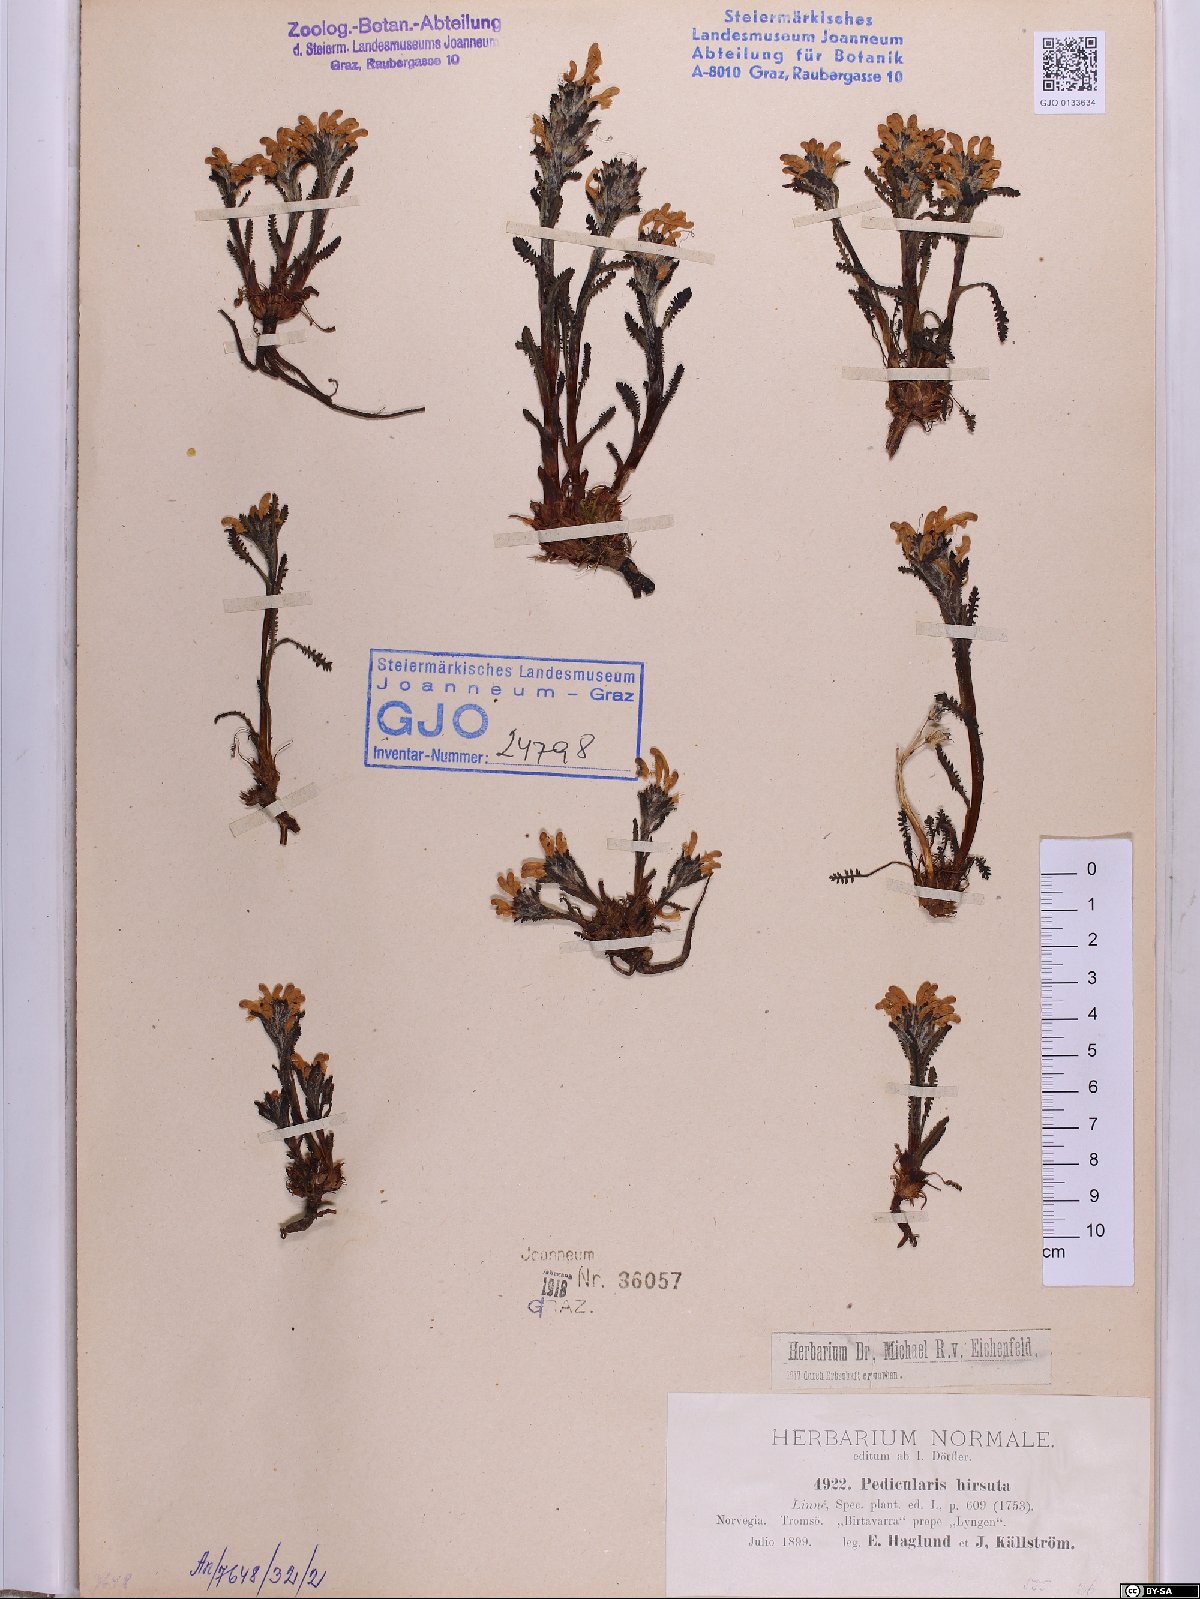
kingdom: Plantae
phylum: Tracheophyta
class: Magnoliopsida
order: Lamiales
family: Orobanchaceae
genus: Pedicularis
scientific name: Pedicularis hirsuta
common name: Hairy lousewort
